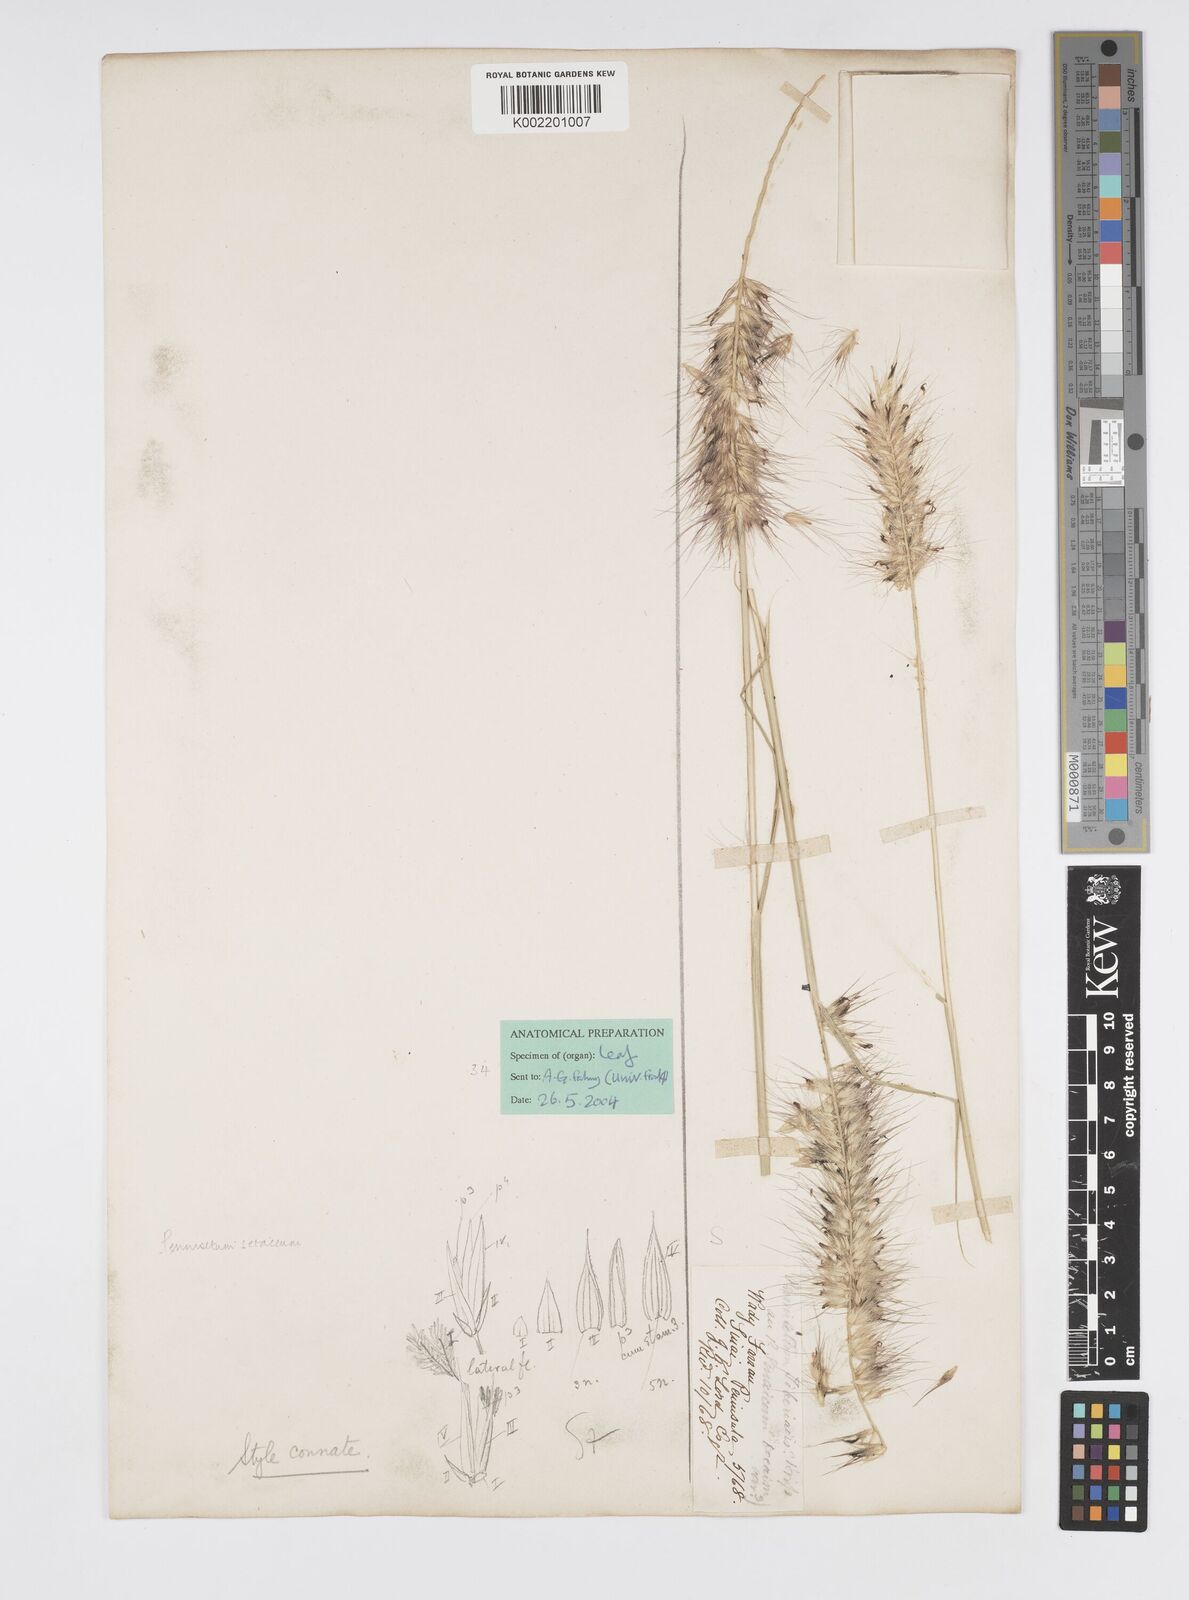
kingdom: Plantae
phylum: Tracheophyta
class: Liliopsida
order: Poales
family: Poaceae
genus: Cenchrus
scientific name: Cenchrus setaceus
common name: Crimson fountaingrass
